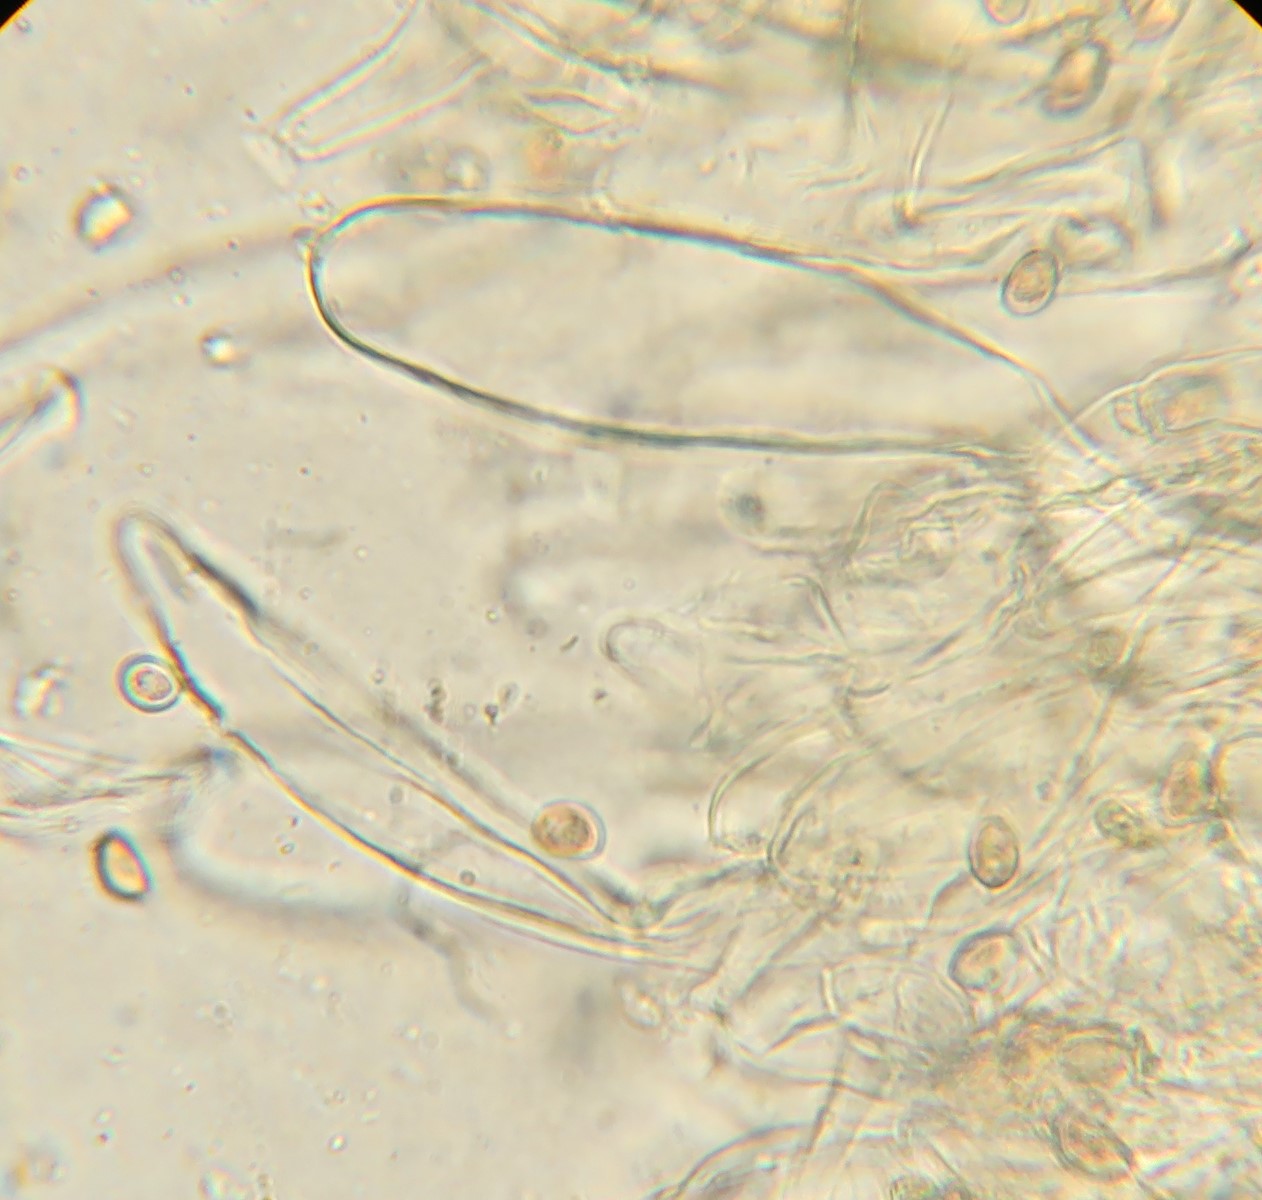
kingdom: Fungi
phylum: Basidiomycota
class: Agaricomycetes
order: Agaricales
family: Strophariaceae
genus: Stropharia
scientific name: Stropharia
